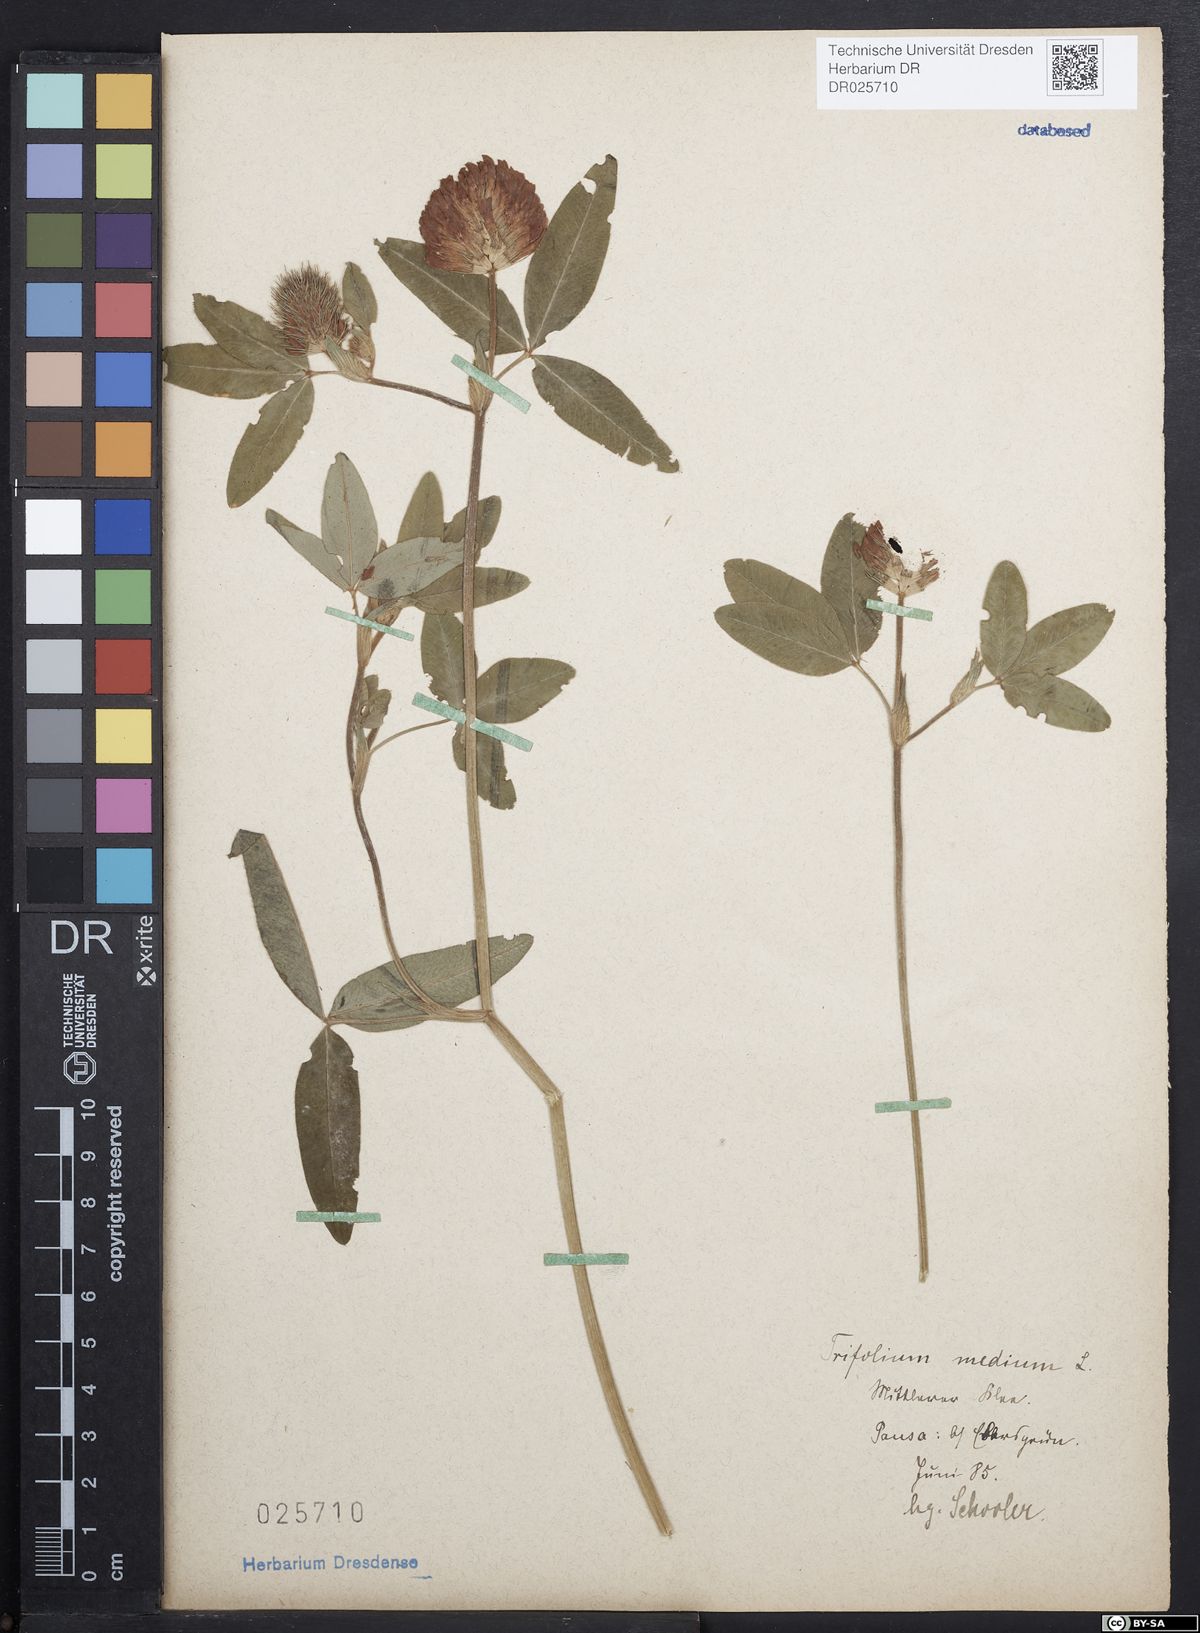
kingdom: Plantae
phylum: Tracheophyta
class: Magnoliopsida
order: Fabales
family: Fabaceae
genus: Trifolium
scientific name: Trifolium medium
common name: Zigzag clover
